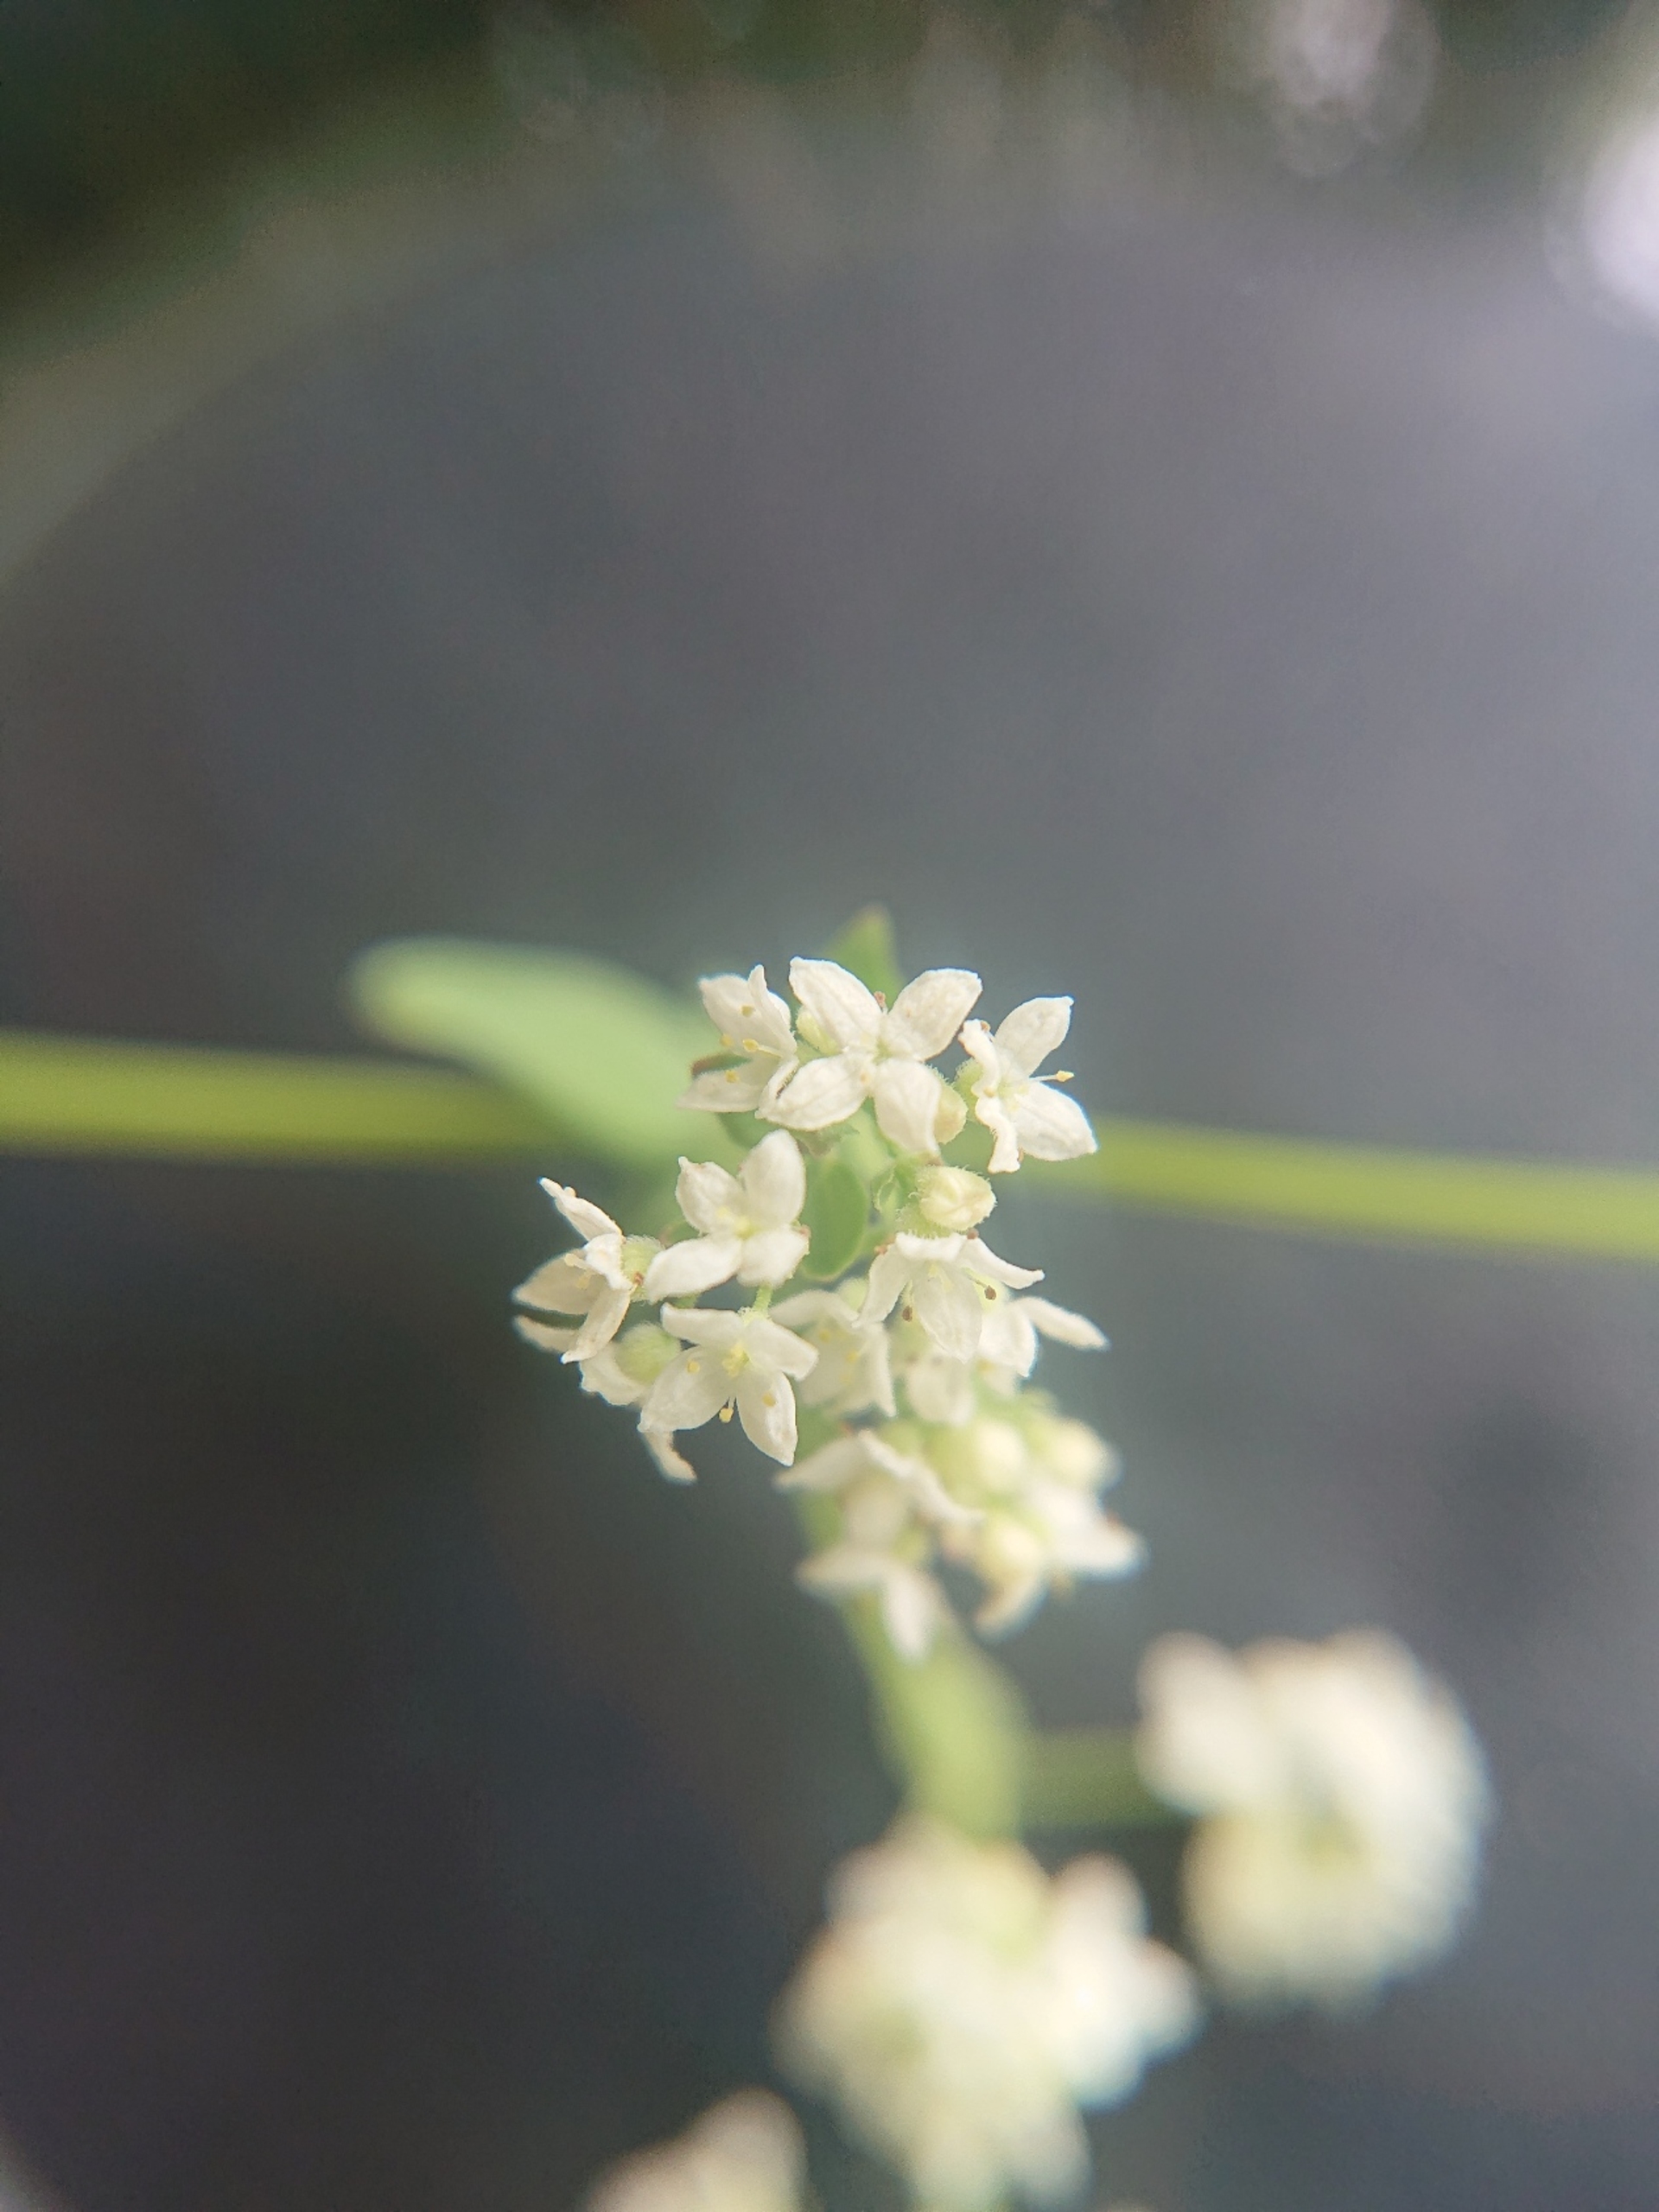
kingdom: Plantae
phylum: Tracheophyta
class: Magnoliopsida
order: Gentianales
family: Rubiaceae
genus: Galium
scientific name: Galium boreale
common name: Trenervet snerre
